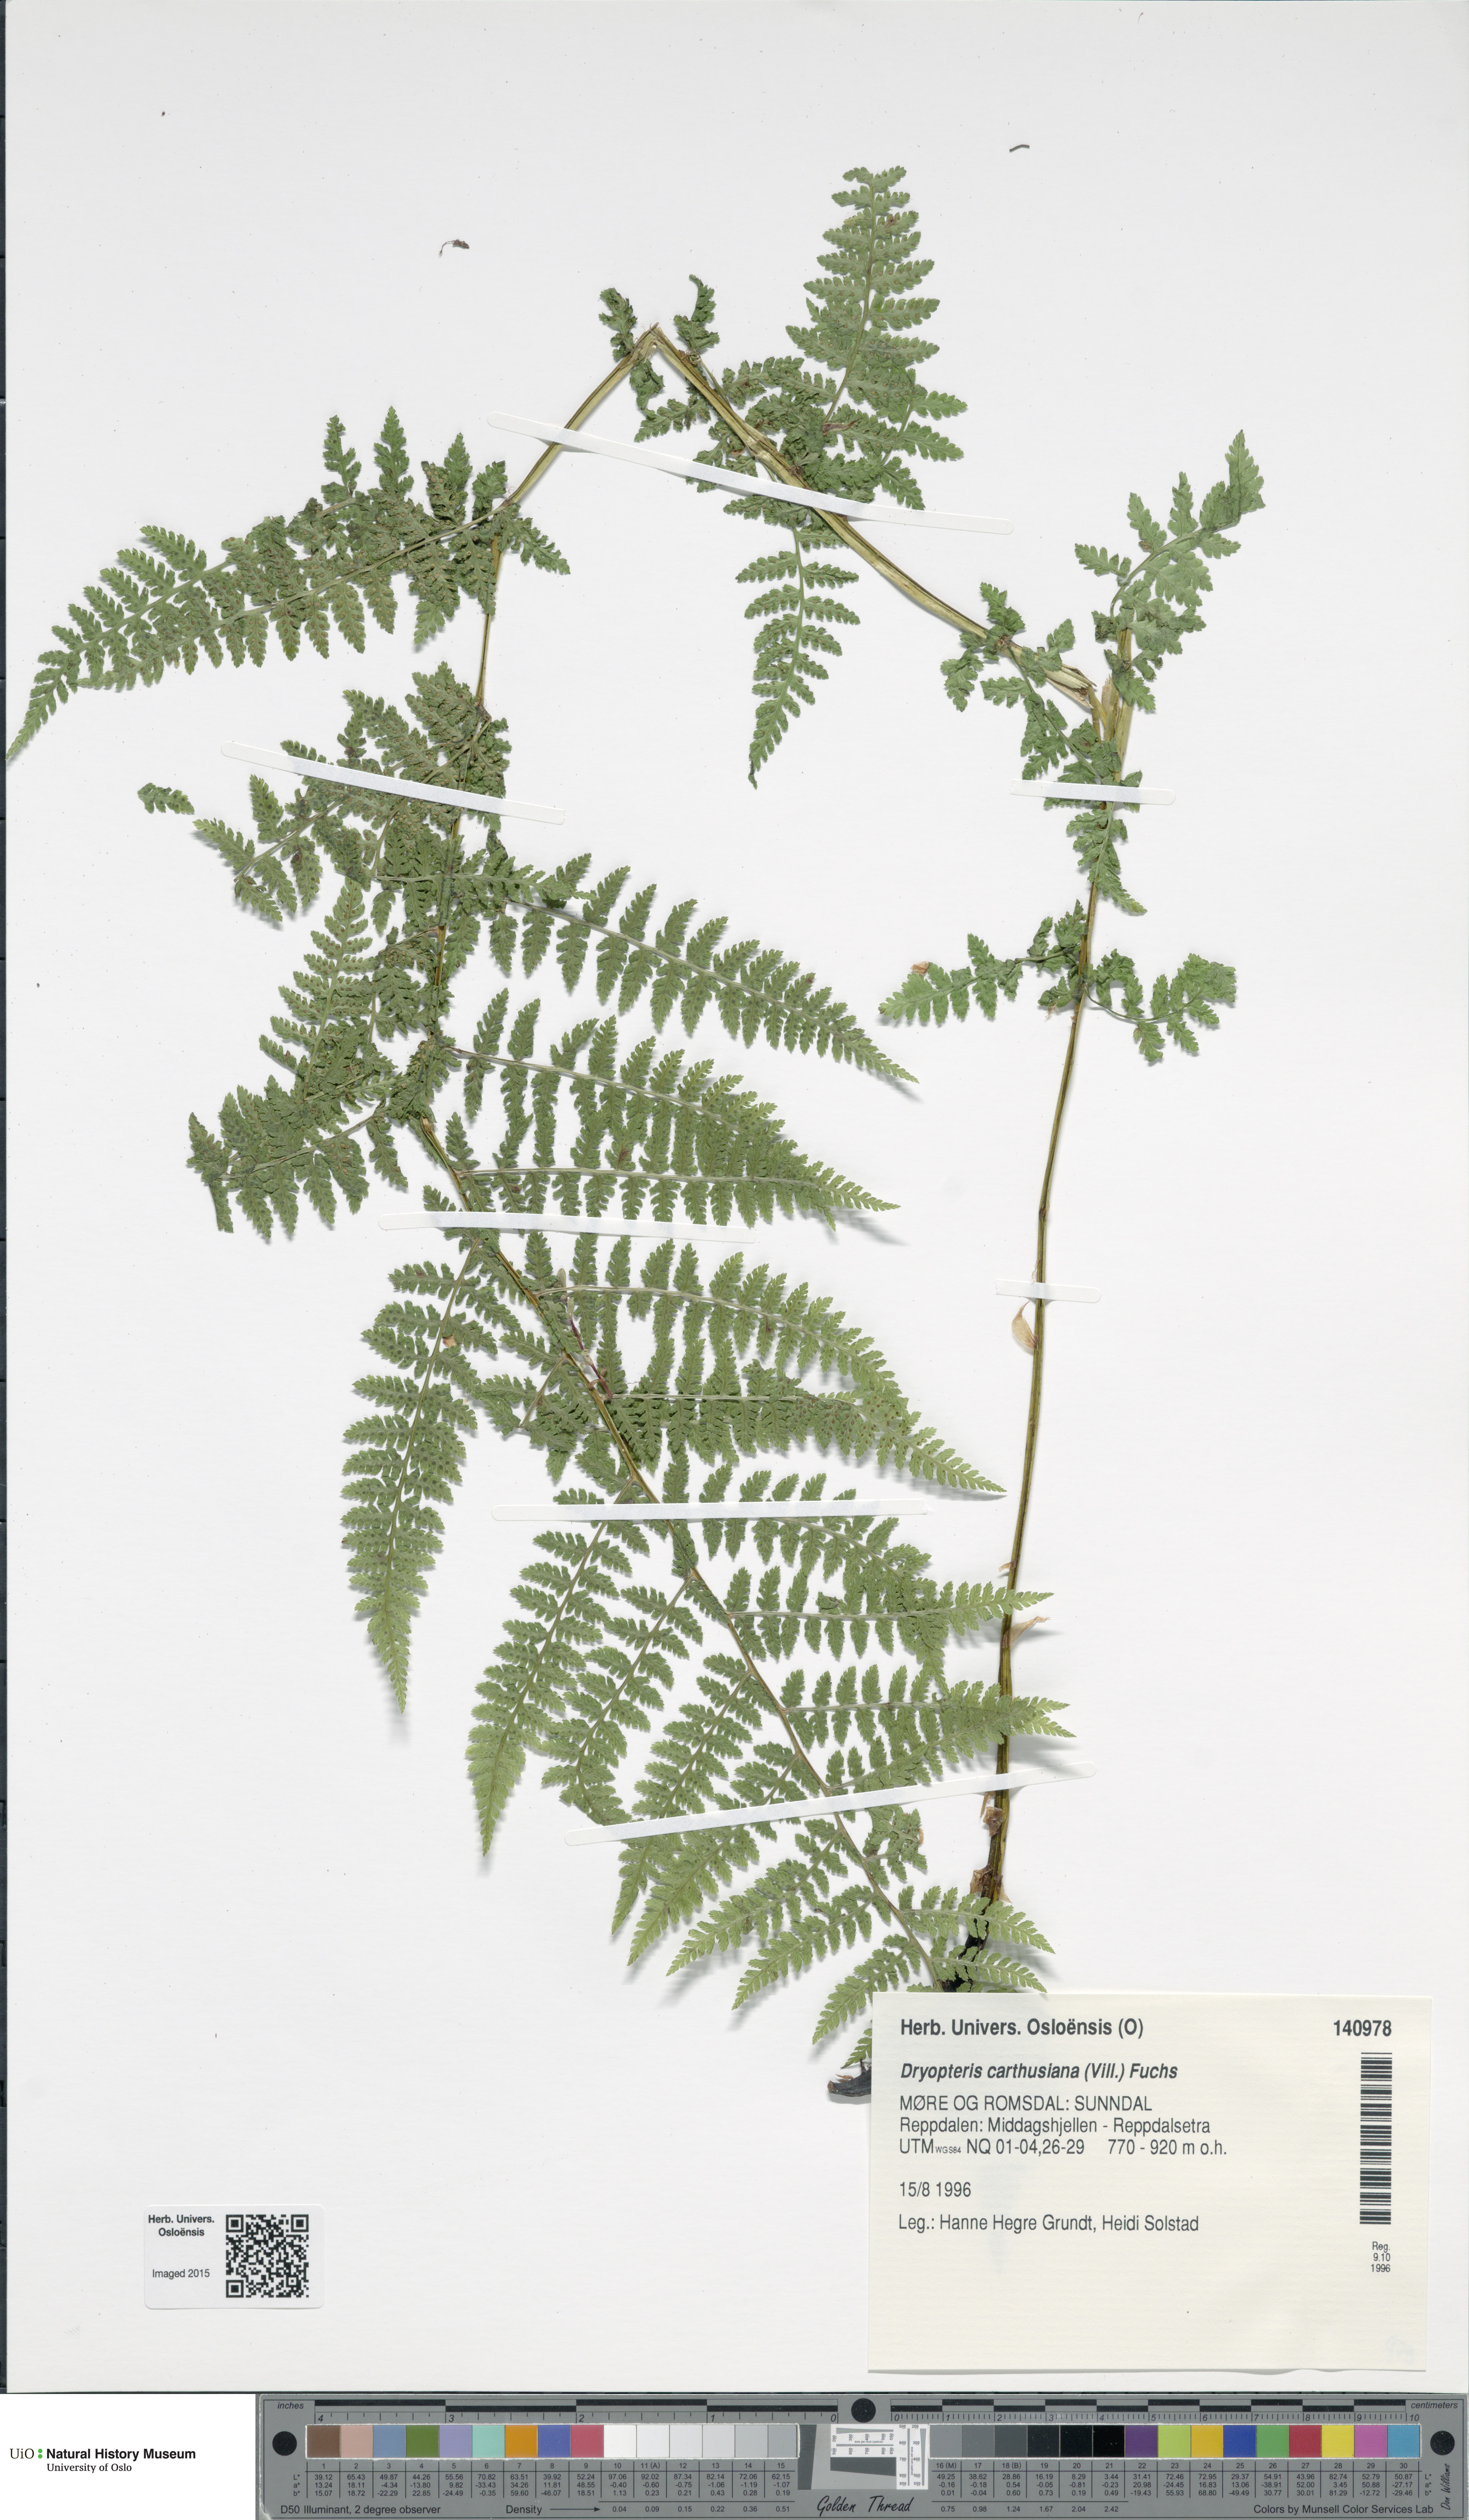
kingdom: Plantae
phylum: Tracheophyta
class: Polypodiopsida
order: Polypodiales
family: Dryopteridaceae
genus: Dryopteris
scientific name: Dryopteris carthusiana
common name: Narrow buckler-fern
